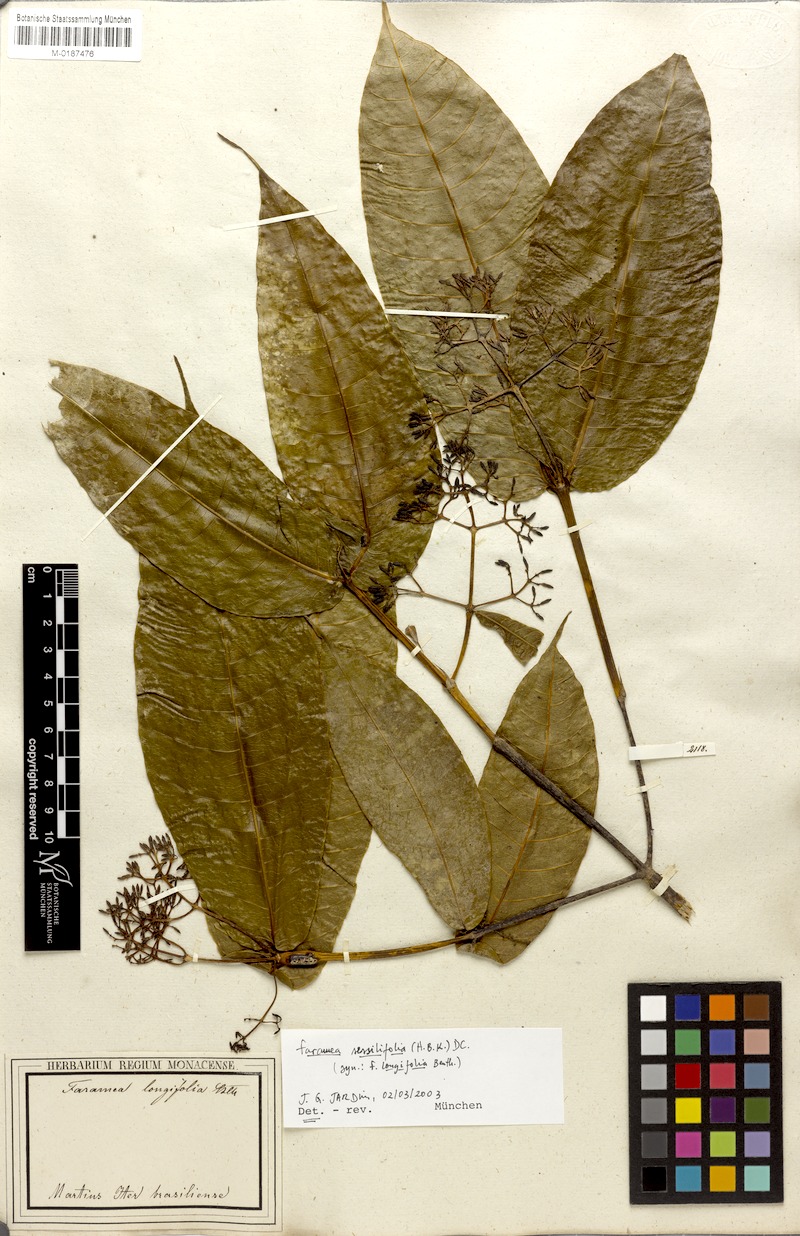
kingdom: Plantae
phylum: Tracheophyta
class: Magnoliopsida
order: Gentianales
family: Rubiaceae
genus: Faramea
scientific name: Faramea sessilifolia
